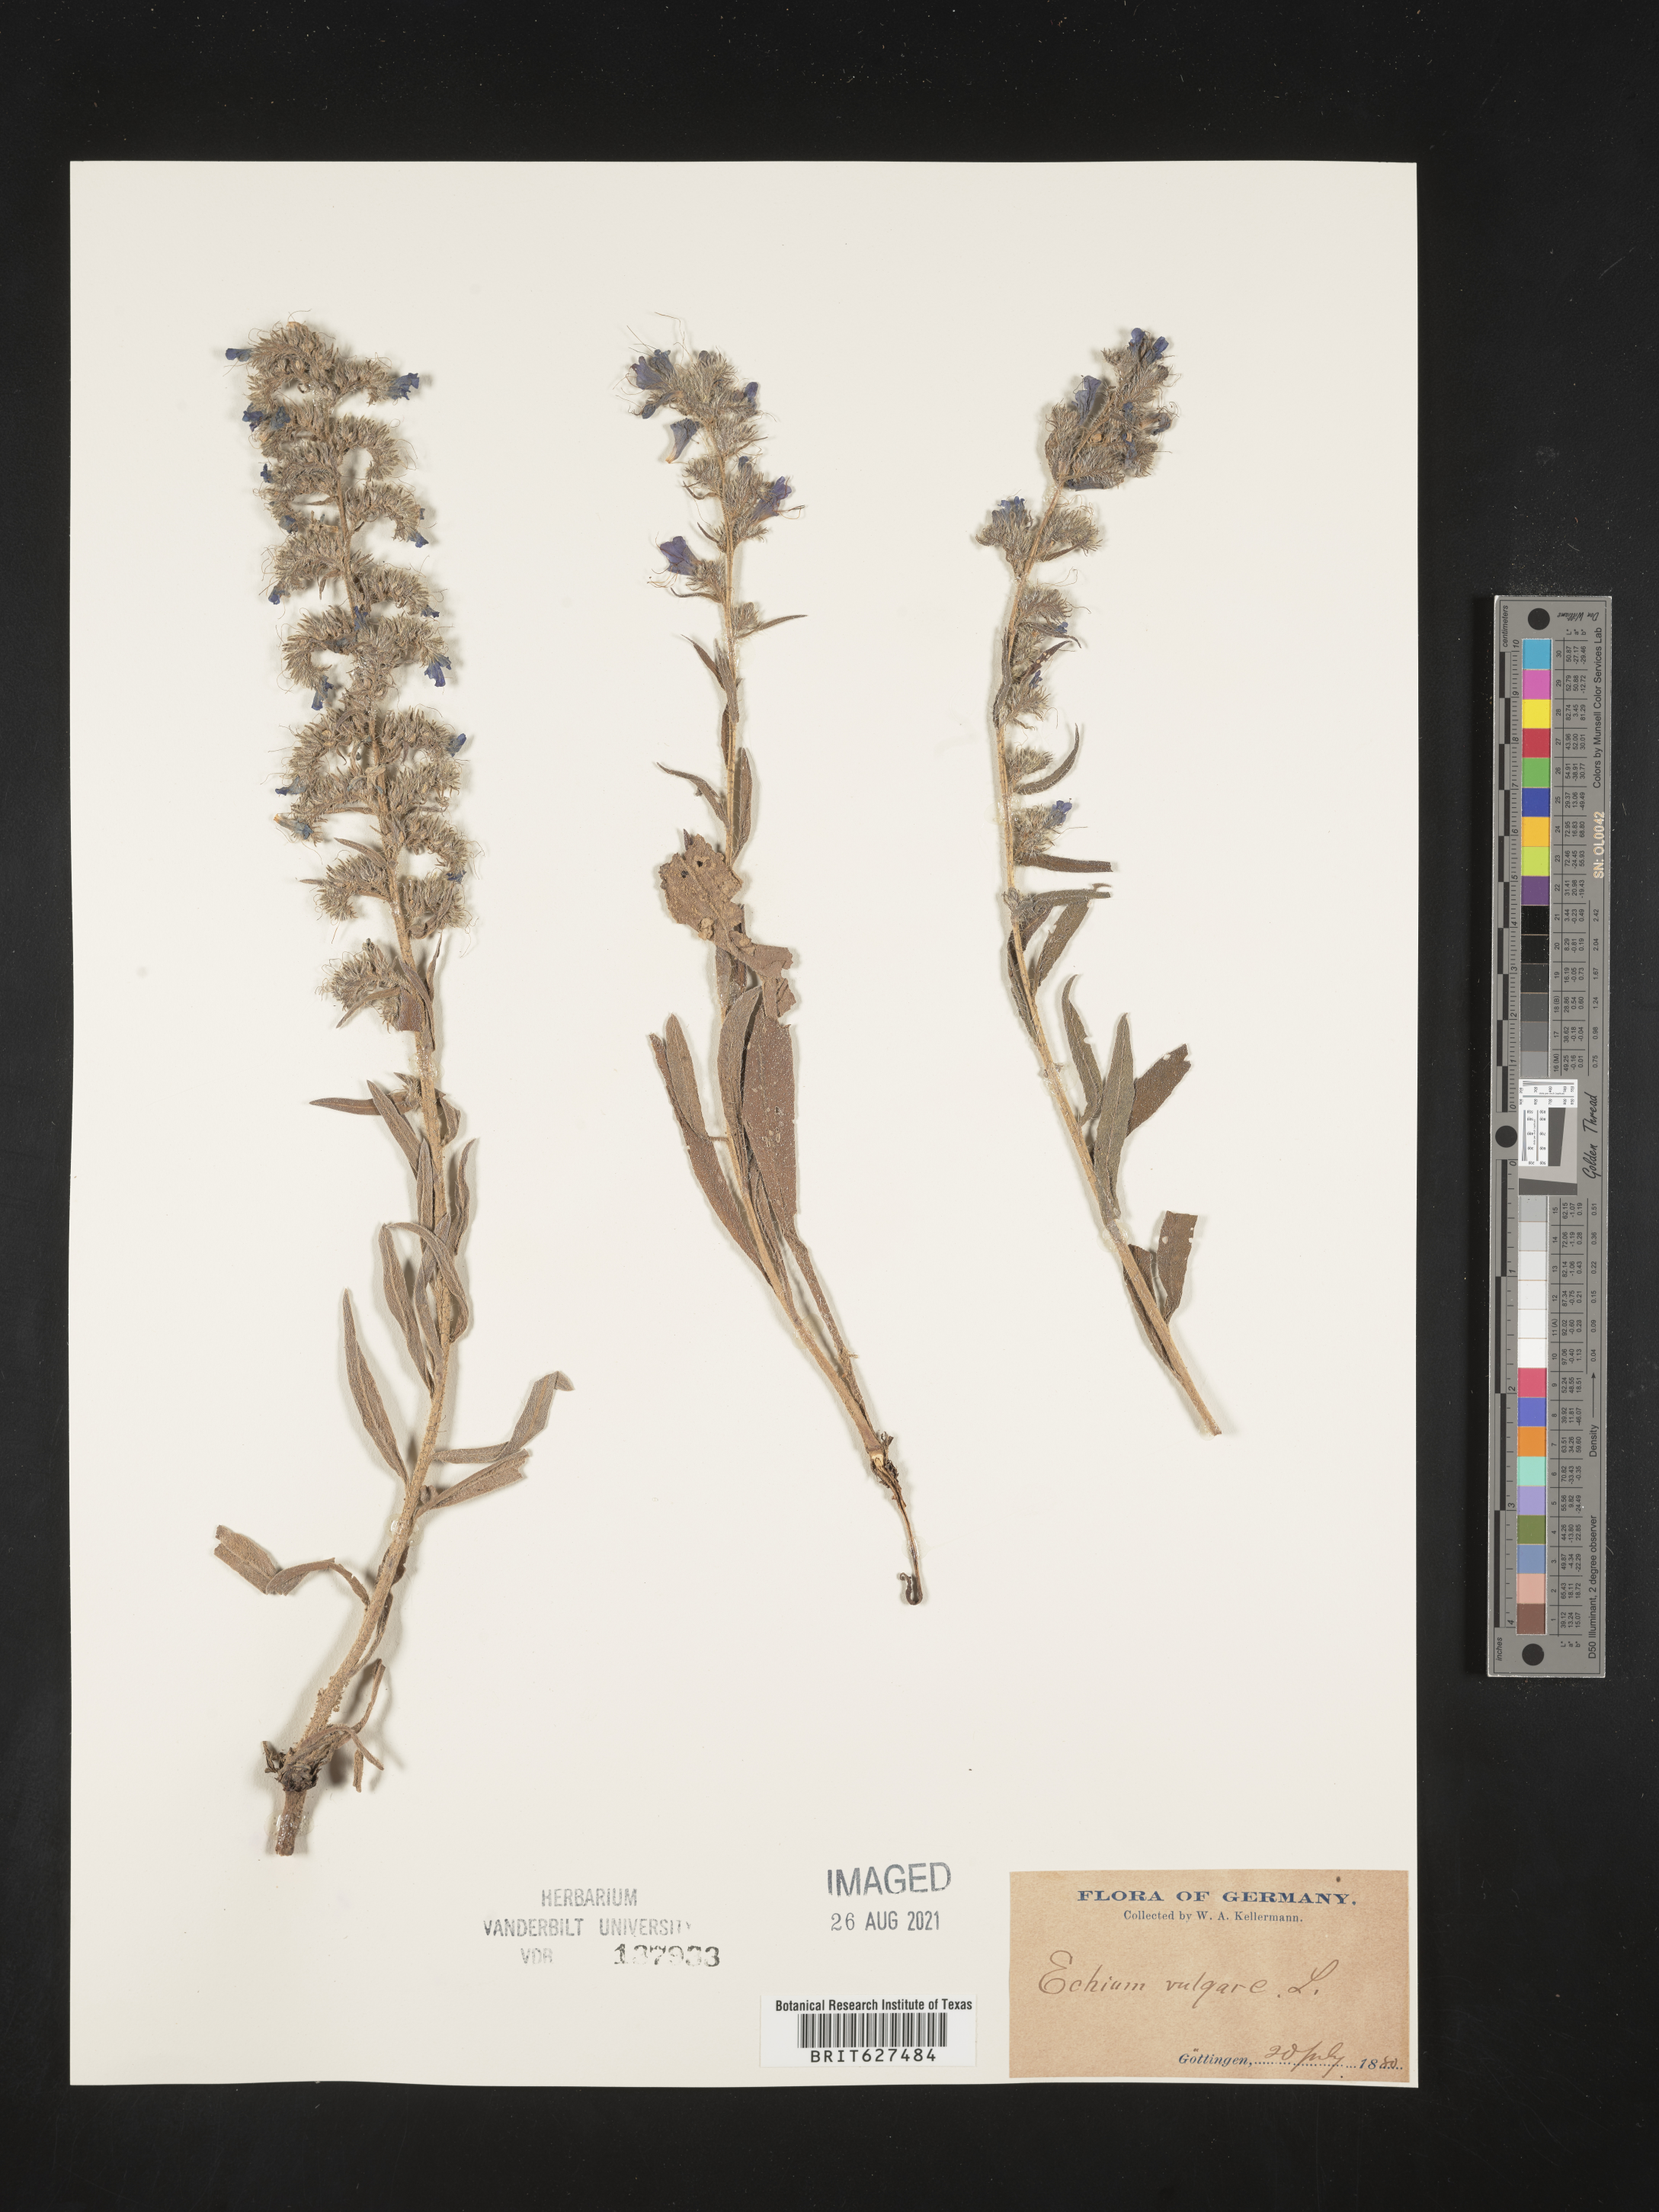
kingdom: Plantae
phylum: Tracheophyta
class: Magnoliopsida
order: Boraginales
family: Boraginaceae
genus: Echium
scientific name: Echium vulgare
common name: Common viper's bugloss
